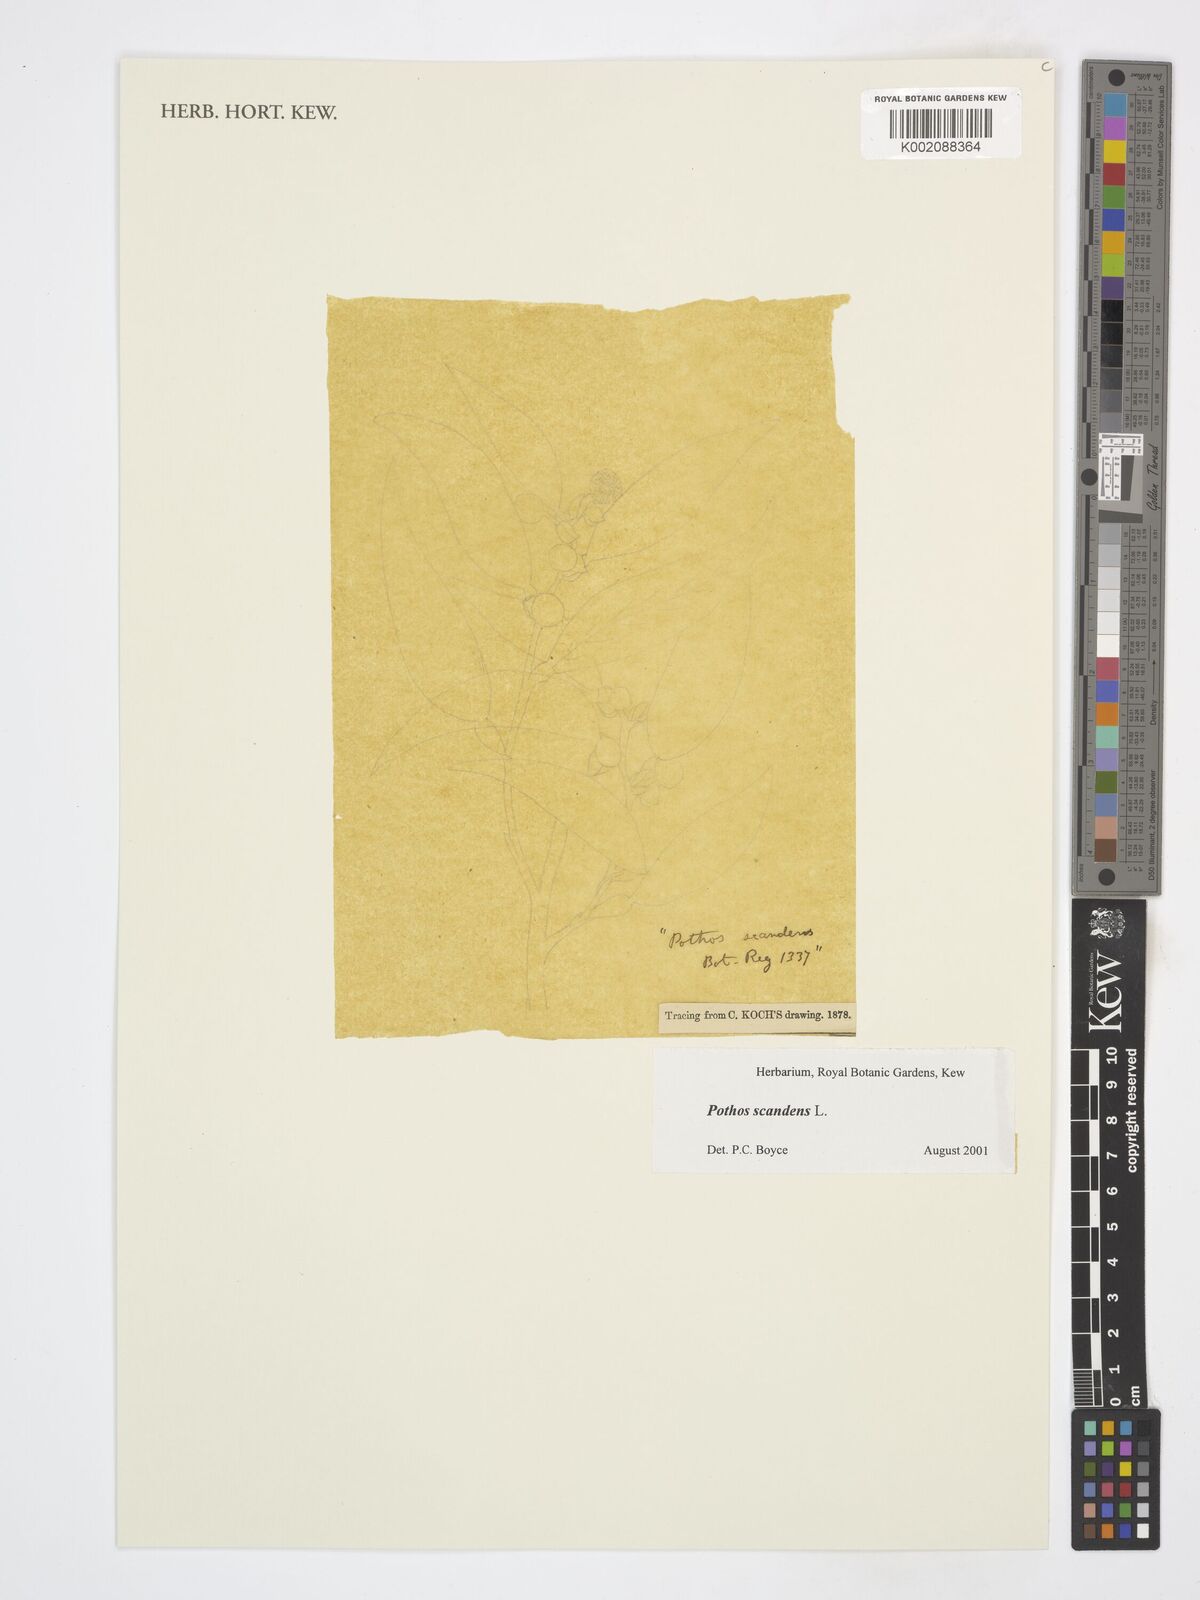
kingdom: Plantae
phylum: Tracheophyta
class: Liliopsida
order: Alismatales
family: Araceae
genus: Pothos
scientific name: Pothos scandens
